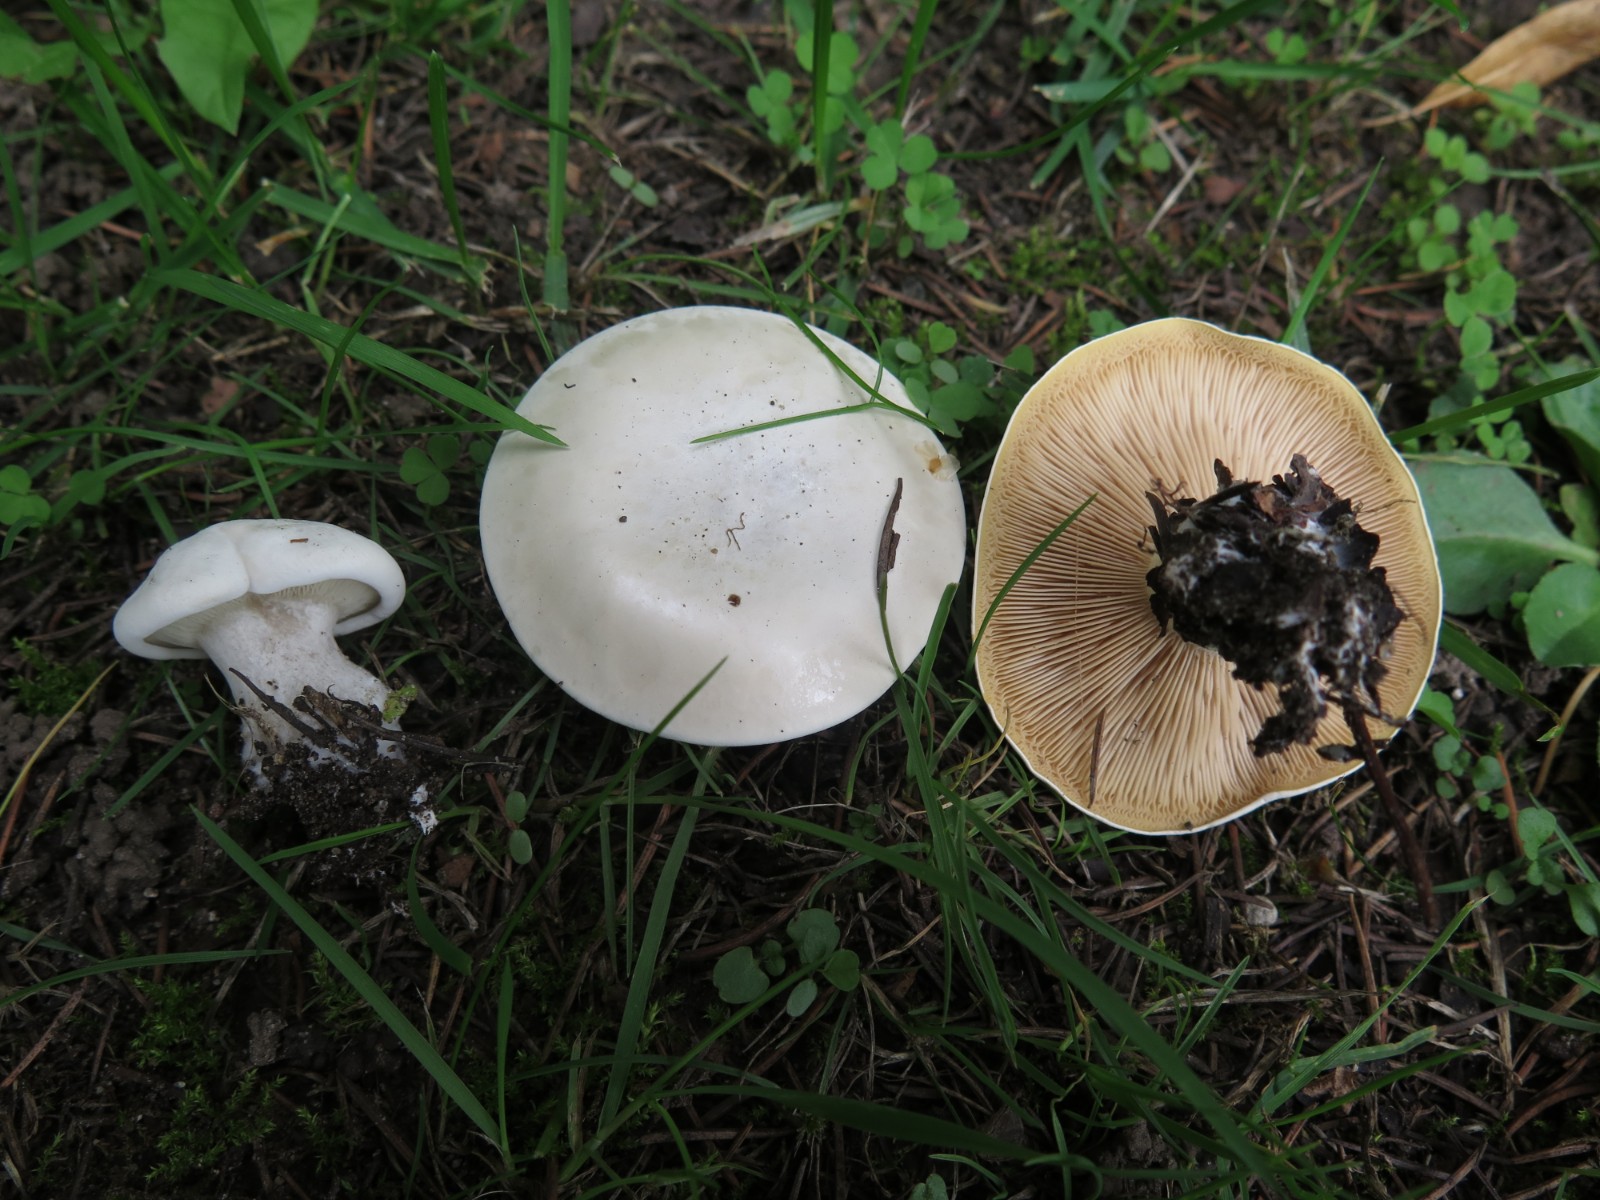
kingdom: Fungi
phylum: Basidiomycota
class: Agaricomycetes
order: Agaricales
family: Entolomataceae
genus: Clitopilus
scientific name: Clitopilus prunulus
